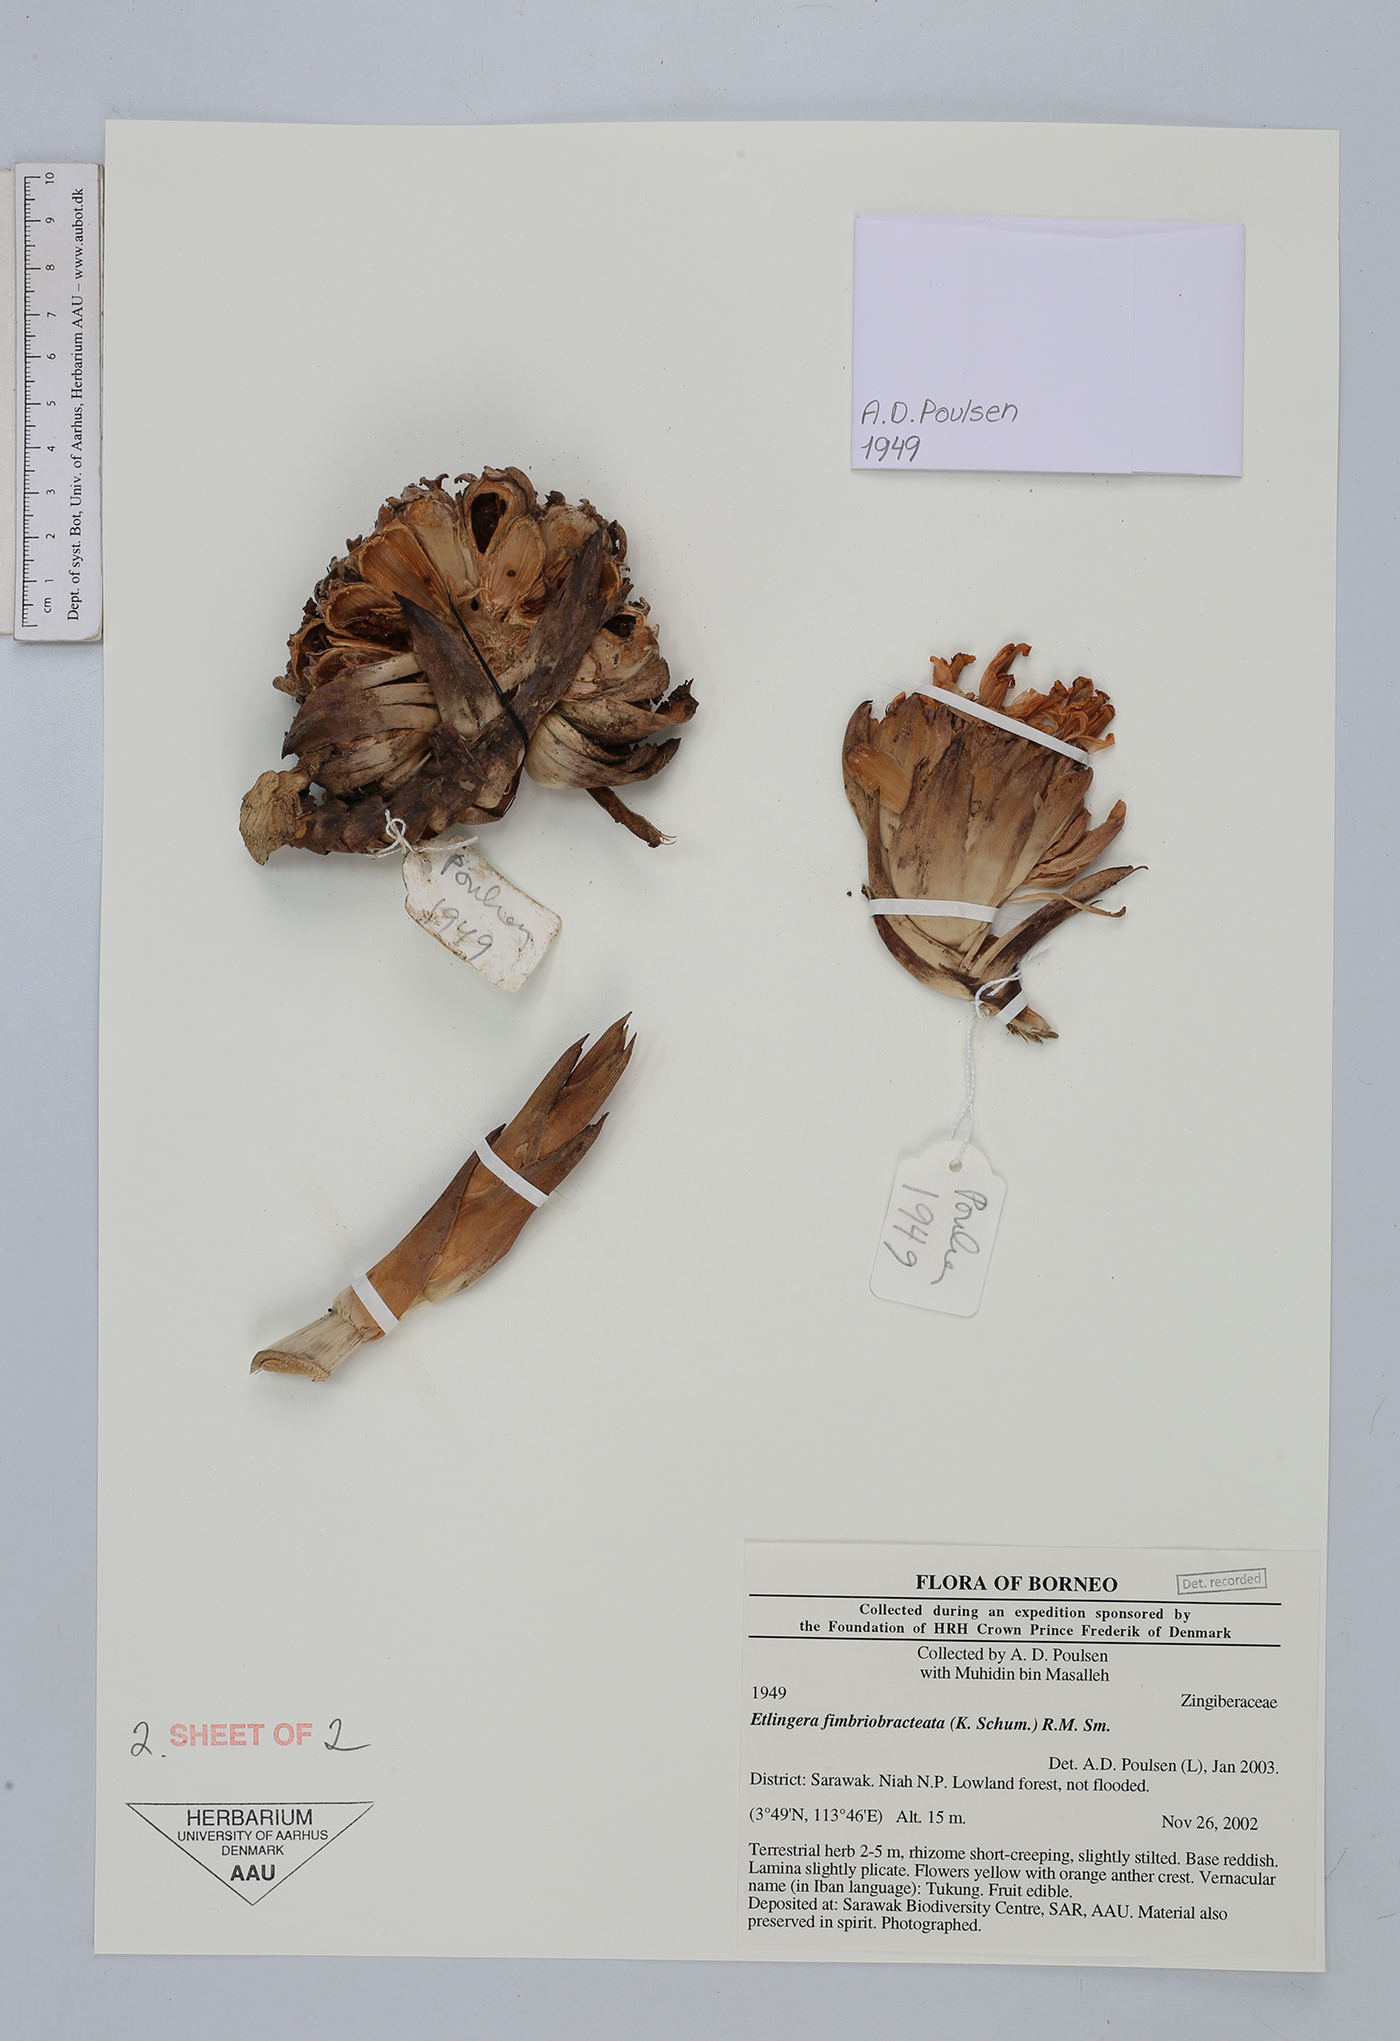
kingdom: Plantae
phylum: Tracheophyta
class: Liliopsida
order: Zingiberales
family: Zingiberaceae
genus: Etlingera
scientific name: Etlingera fimbriobracteata
